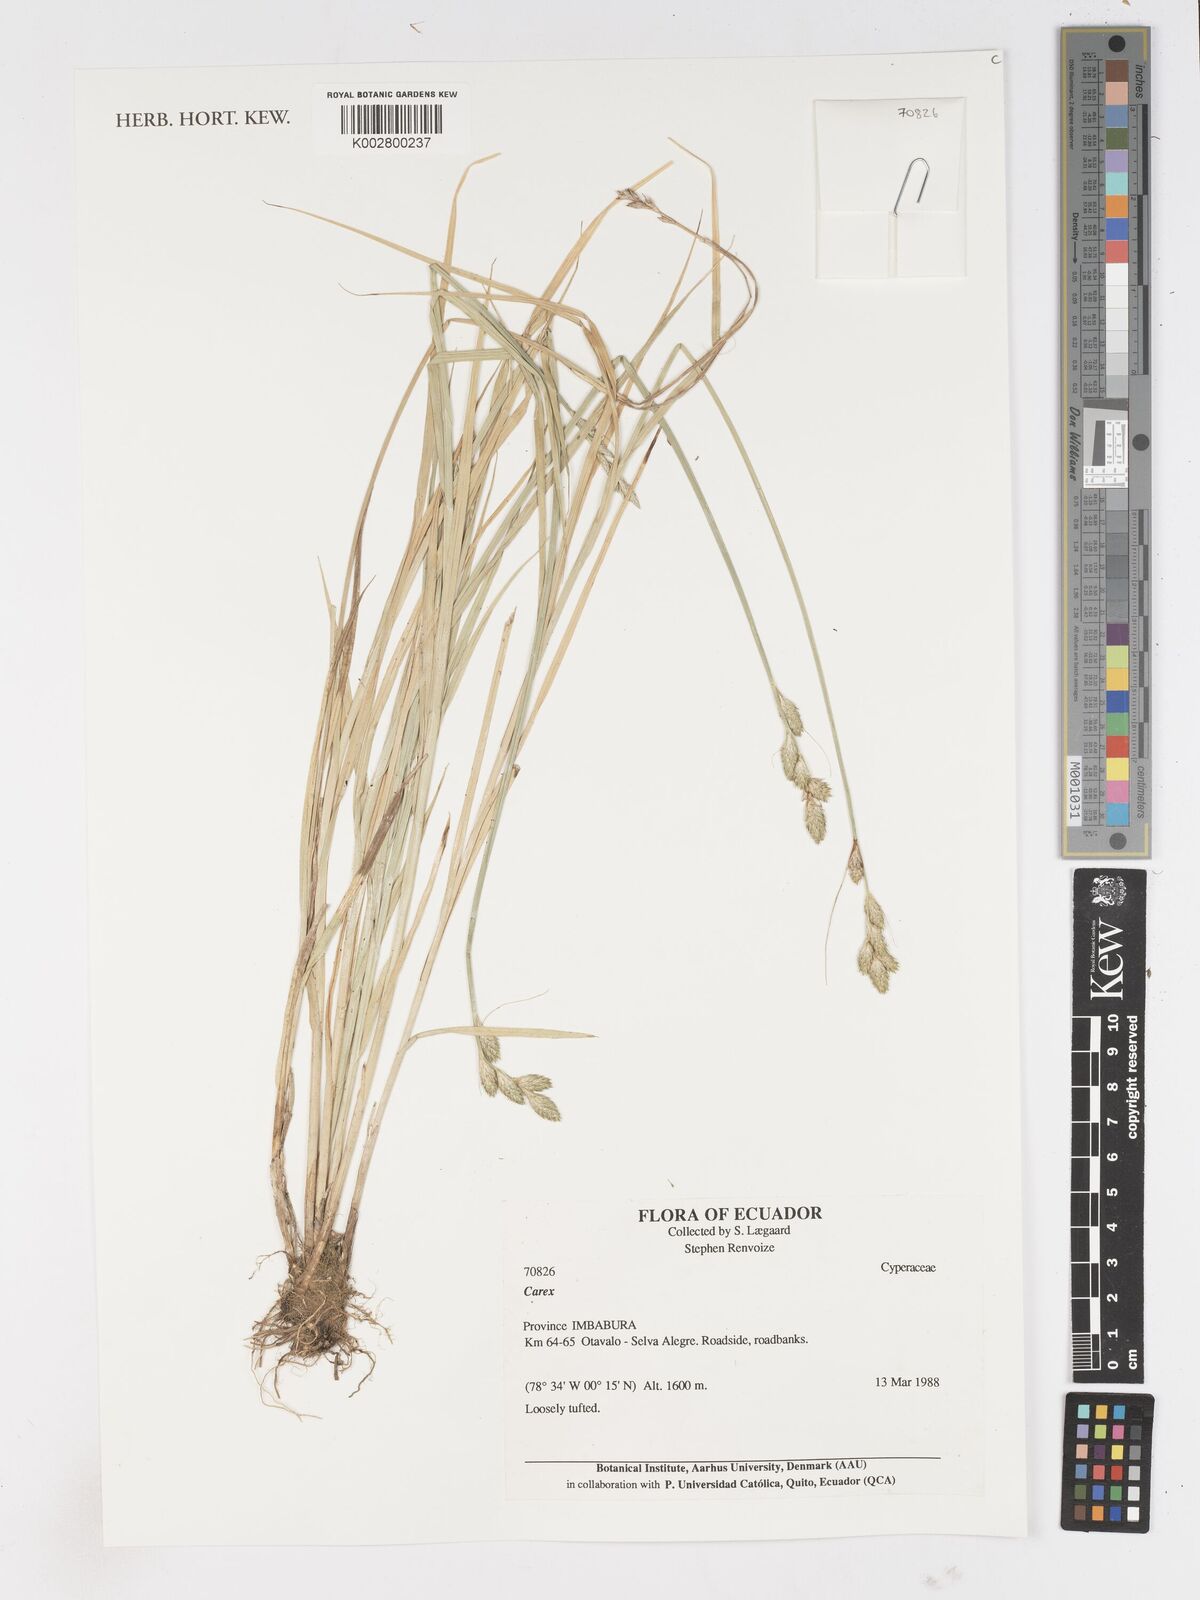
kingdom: Plantae
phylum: Tracheophyta
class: Liliopsida
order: Poales
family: Cyperaceae
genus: Carex
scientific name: Carex
